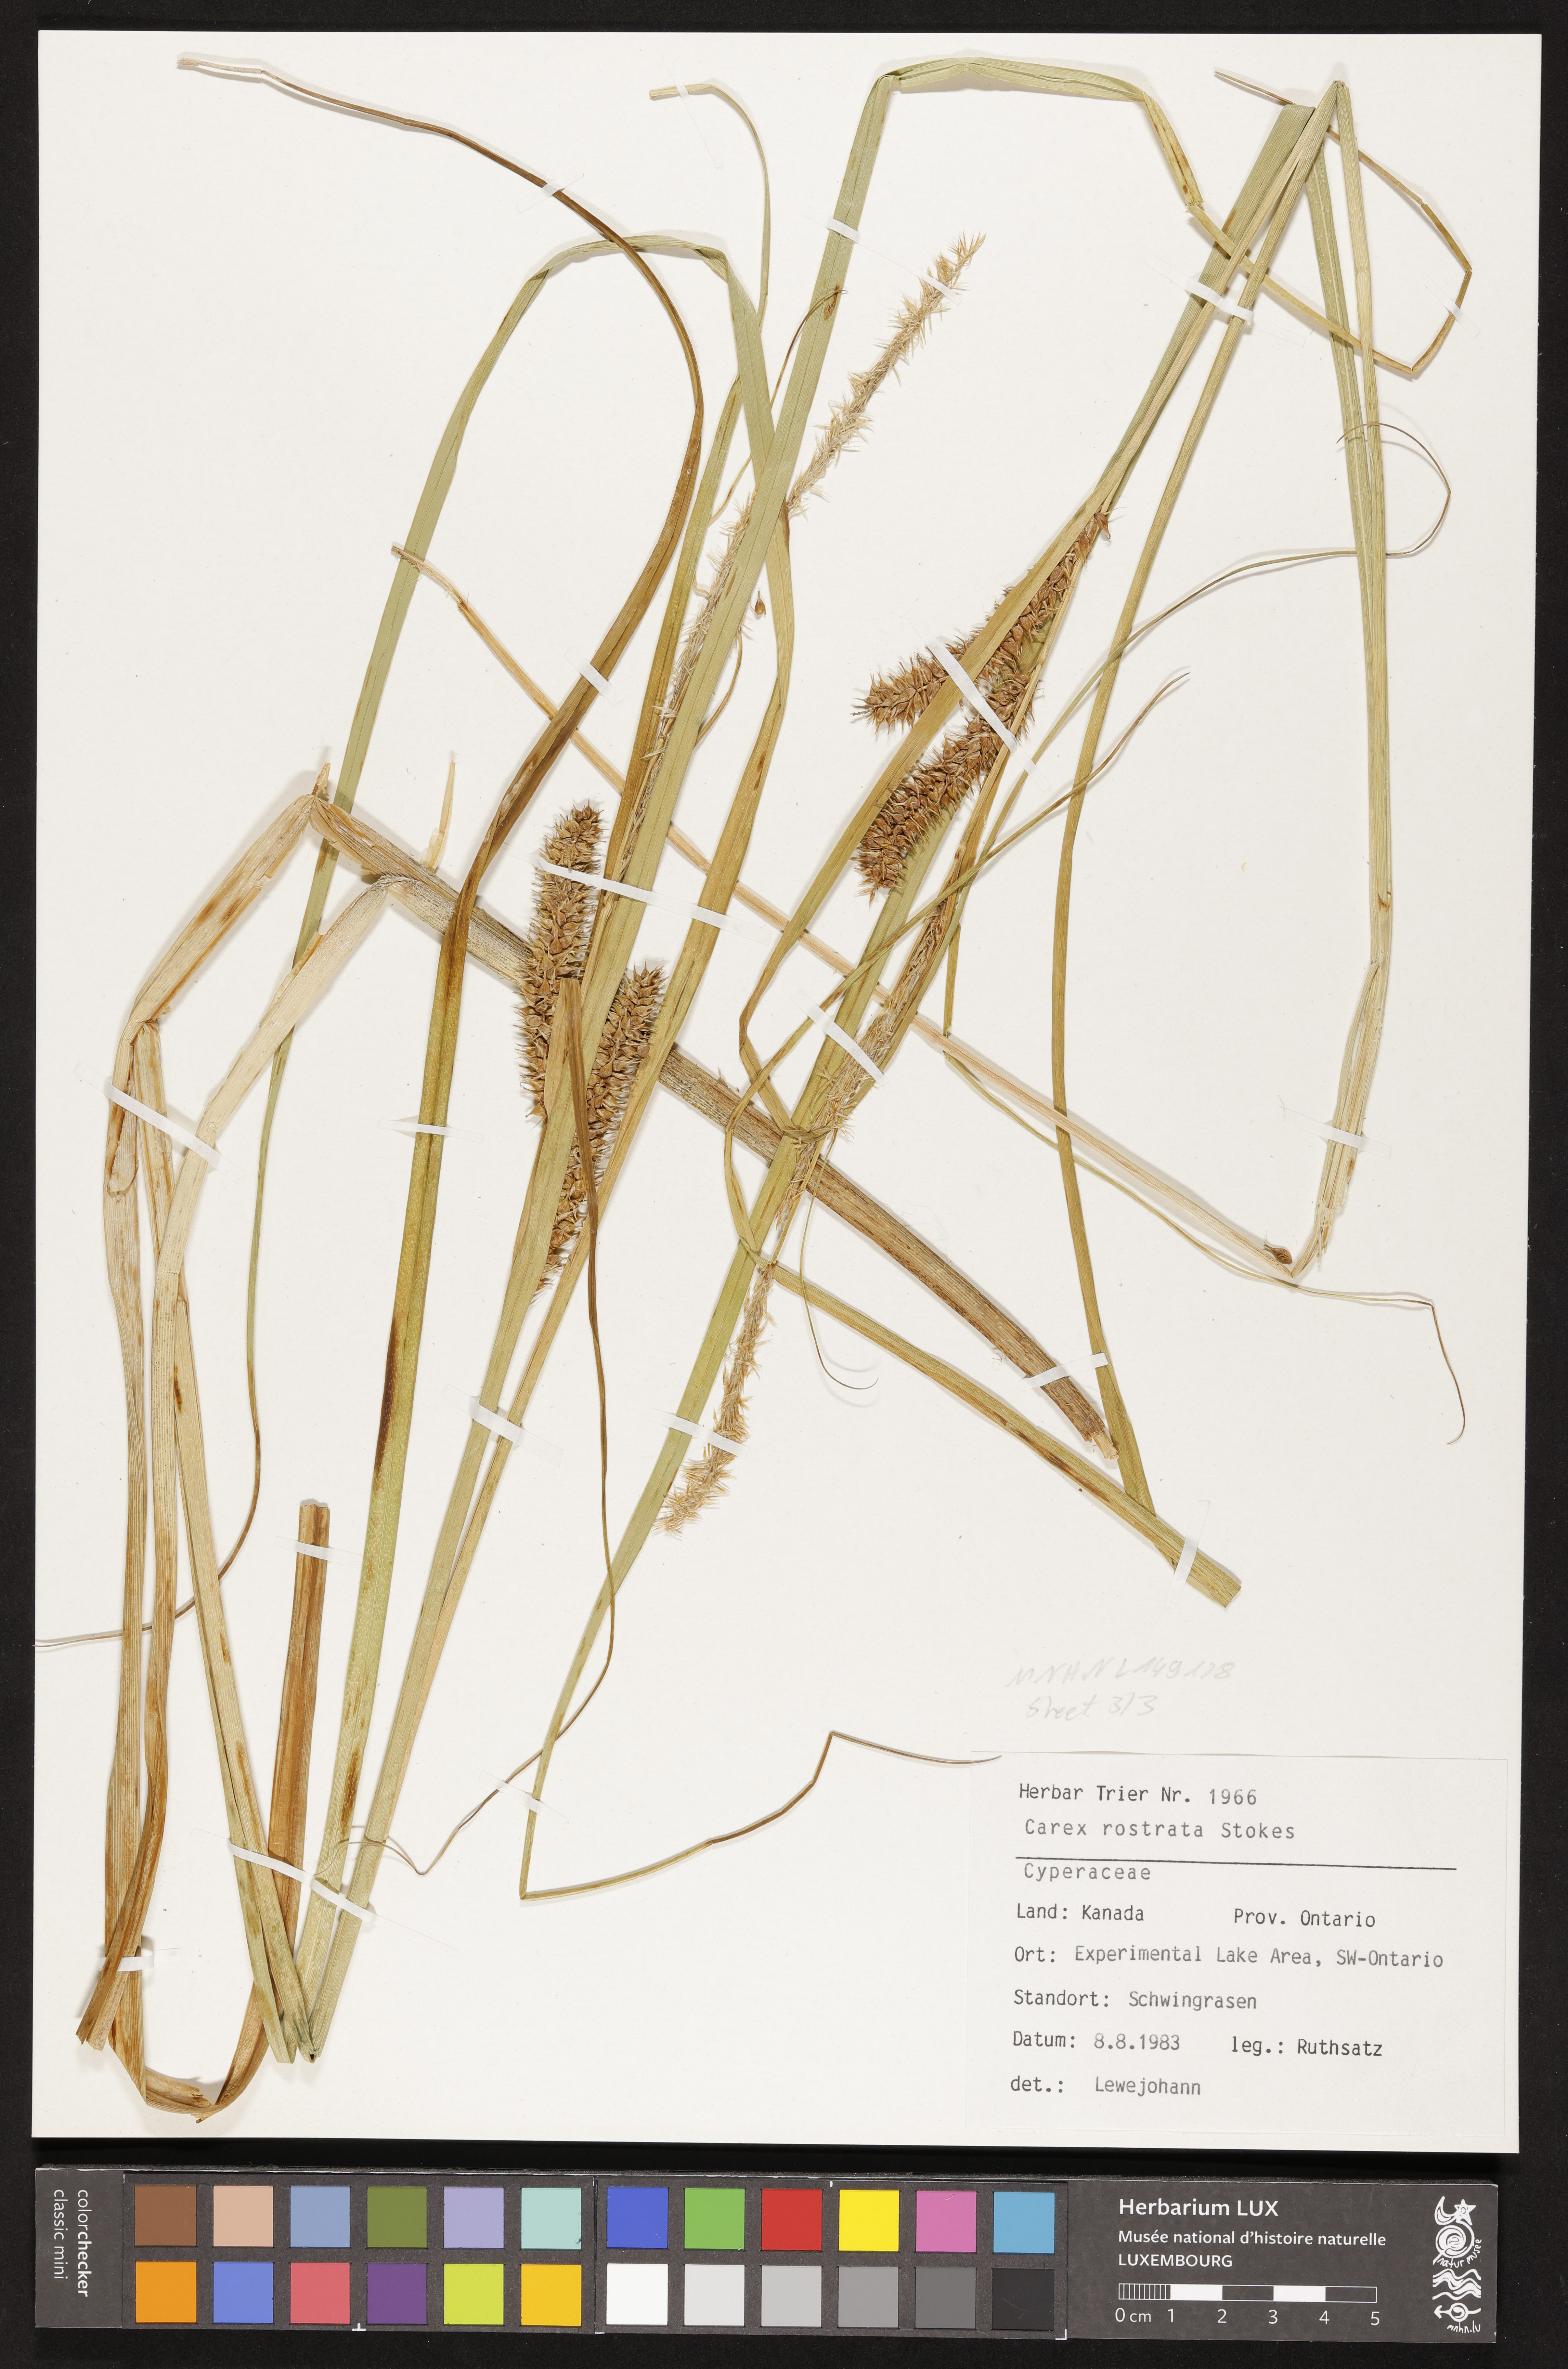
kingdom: Plantae
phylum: Tracheophyta
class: Liliopsida
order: Poales
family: Cyperaceae
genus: Carex
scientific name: Carex rostrata
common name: Bottle sedge
